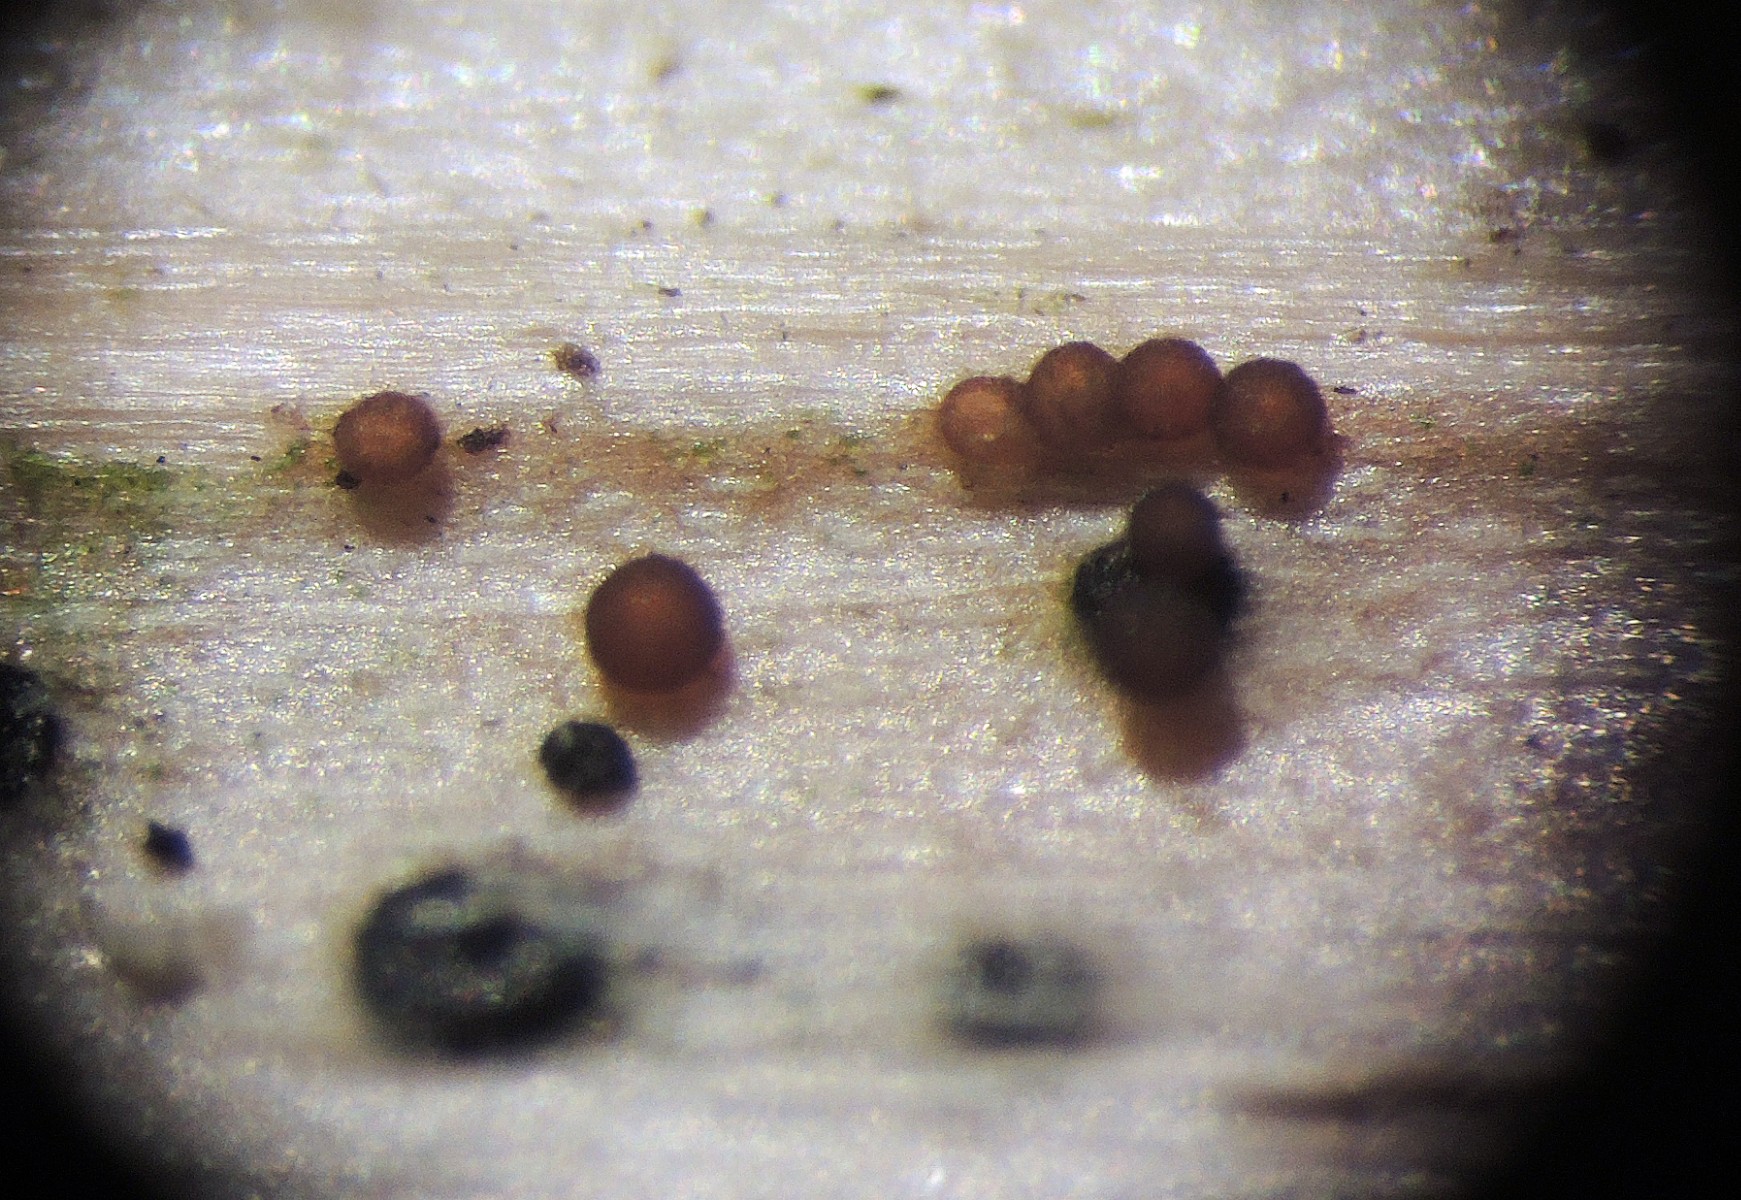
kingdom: Fungi
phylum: Ascomycota
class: Sordariomycetes
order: Hypocreales
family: Nectriaceae
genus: Hydropisphaera
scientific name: Hydropisphaera arenula
